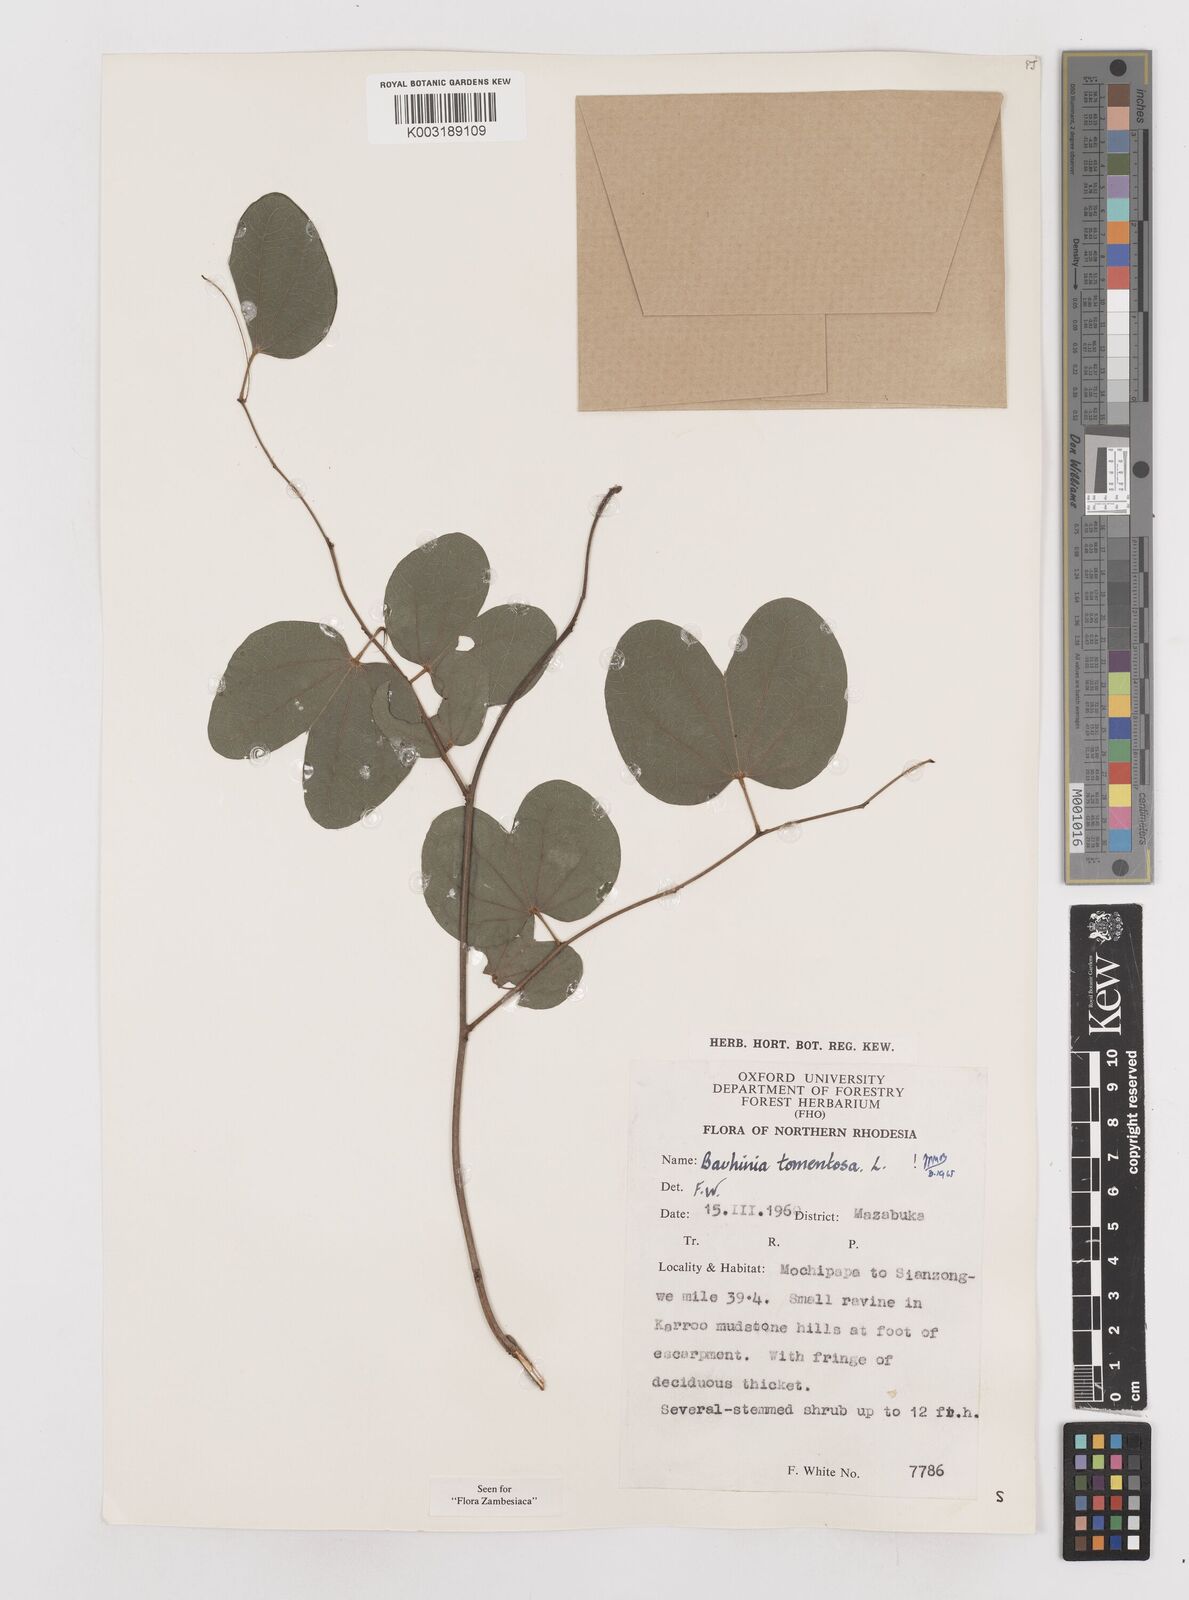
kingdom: Plantae
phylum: Tracheophyta
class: Magnoliopsida
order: Fabales
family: Fabaceae
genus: Bauhinia
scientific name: Bauhinia tomentosa
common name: Bell bauhinia
